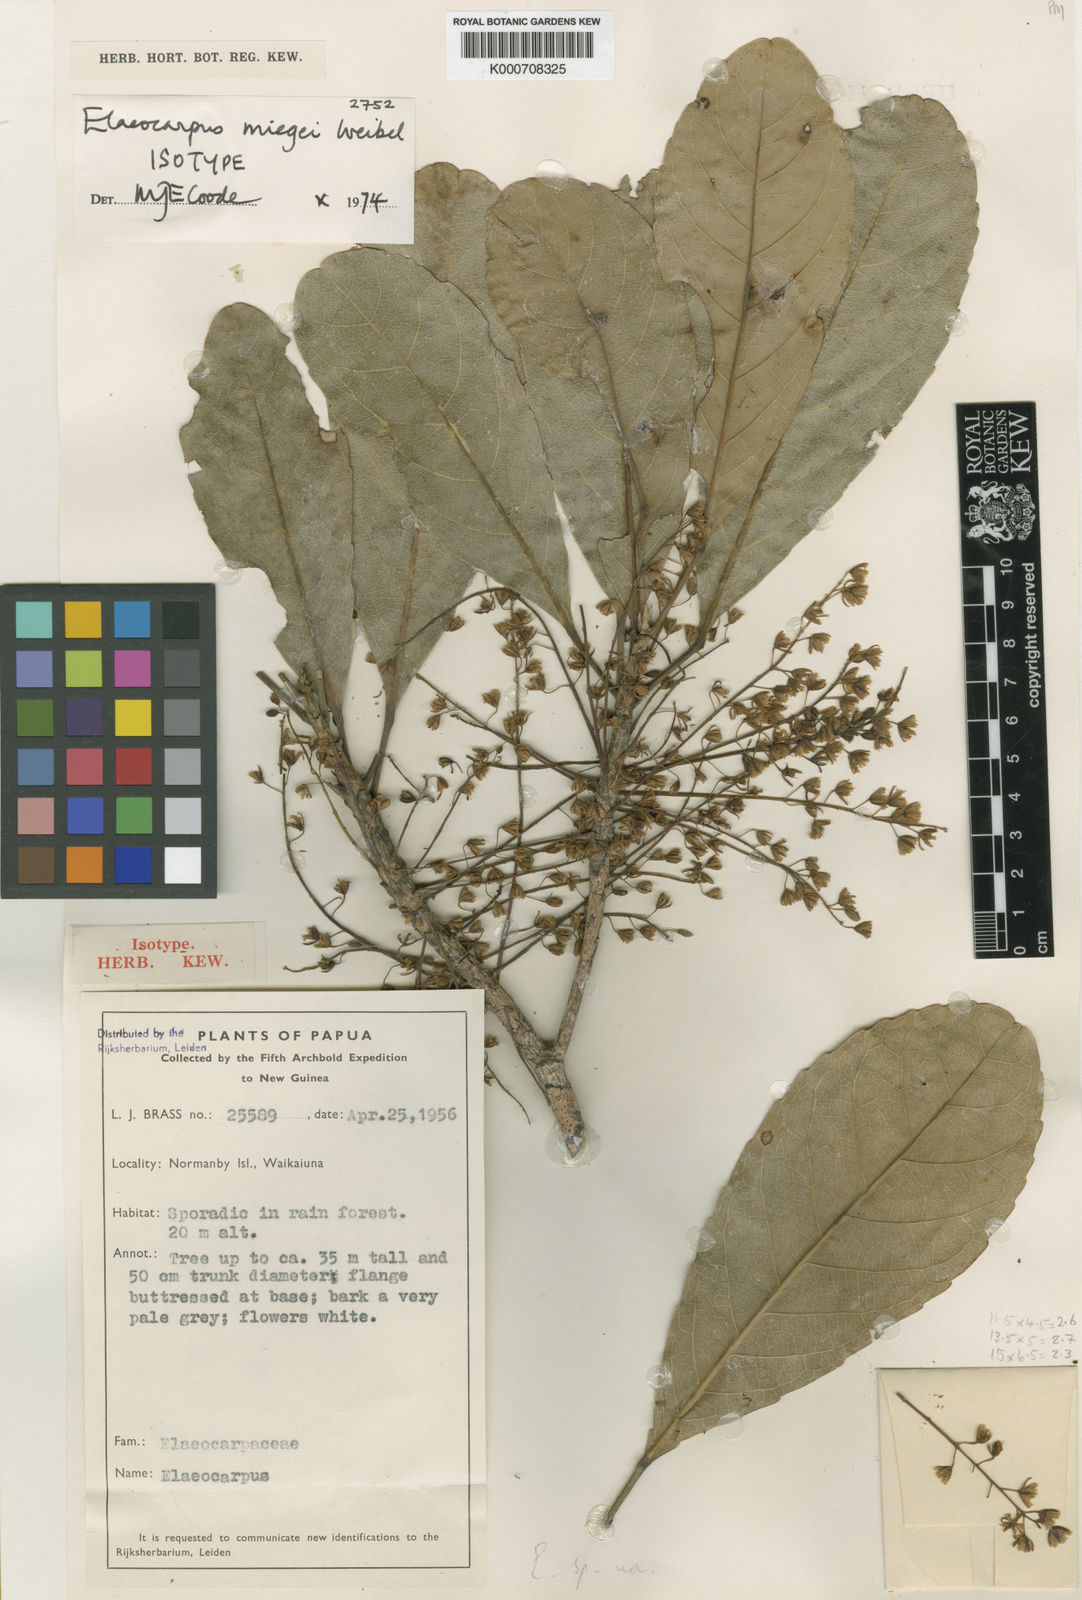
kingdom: Plantae
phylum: Tracheophyta
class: Magnoliopsida
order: Oxalidales
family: Elaeocarpaceae
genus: Elaeocarpus
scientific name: Elaeocarpus miegei
